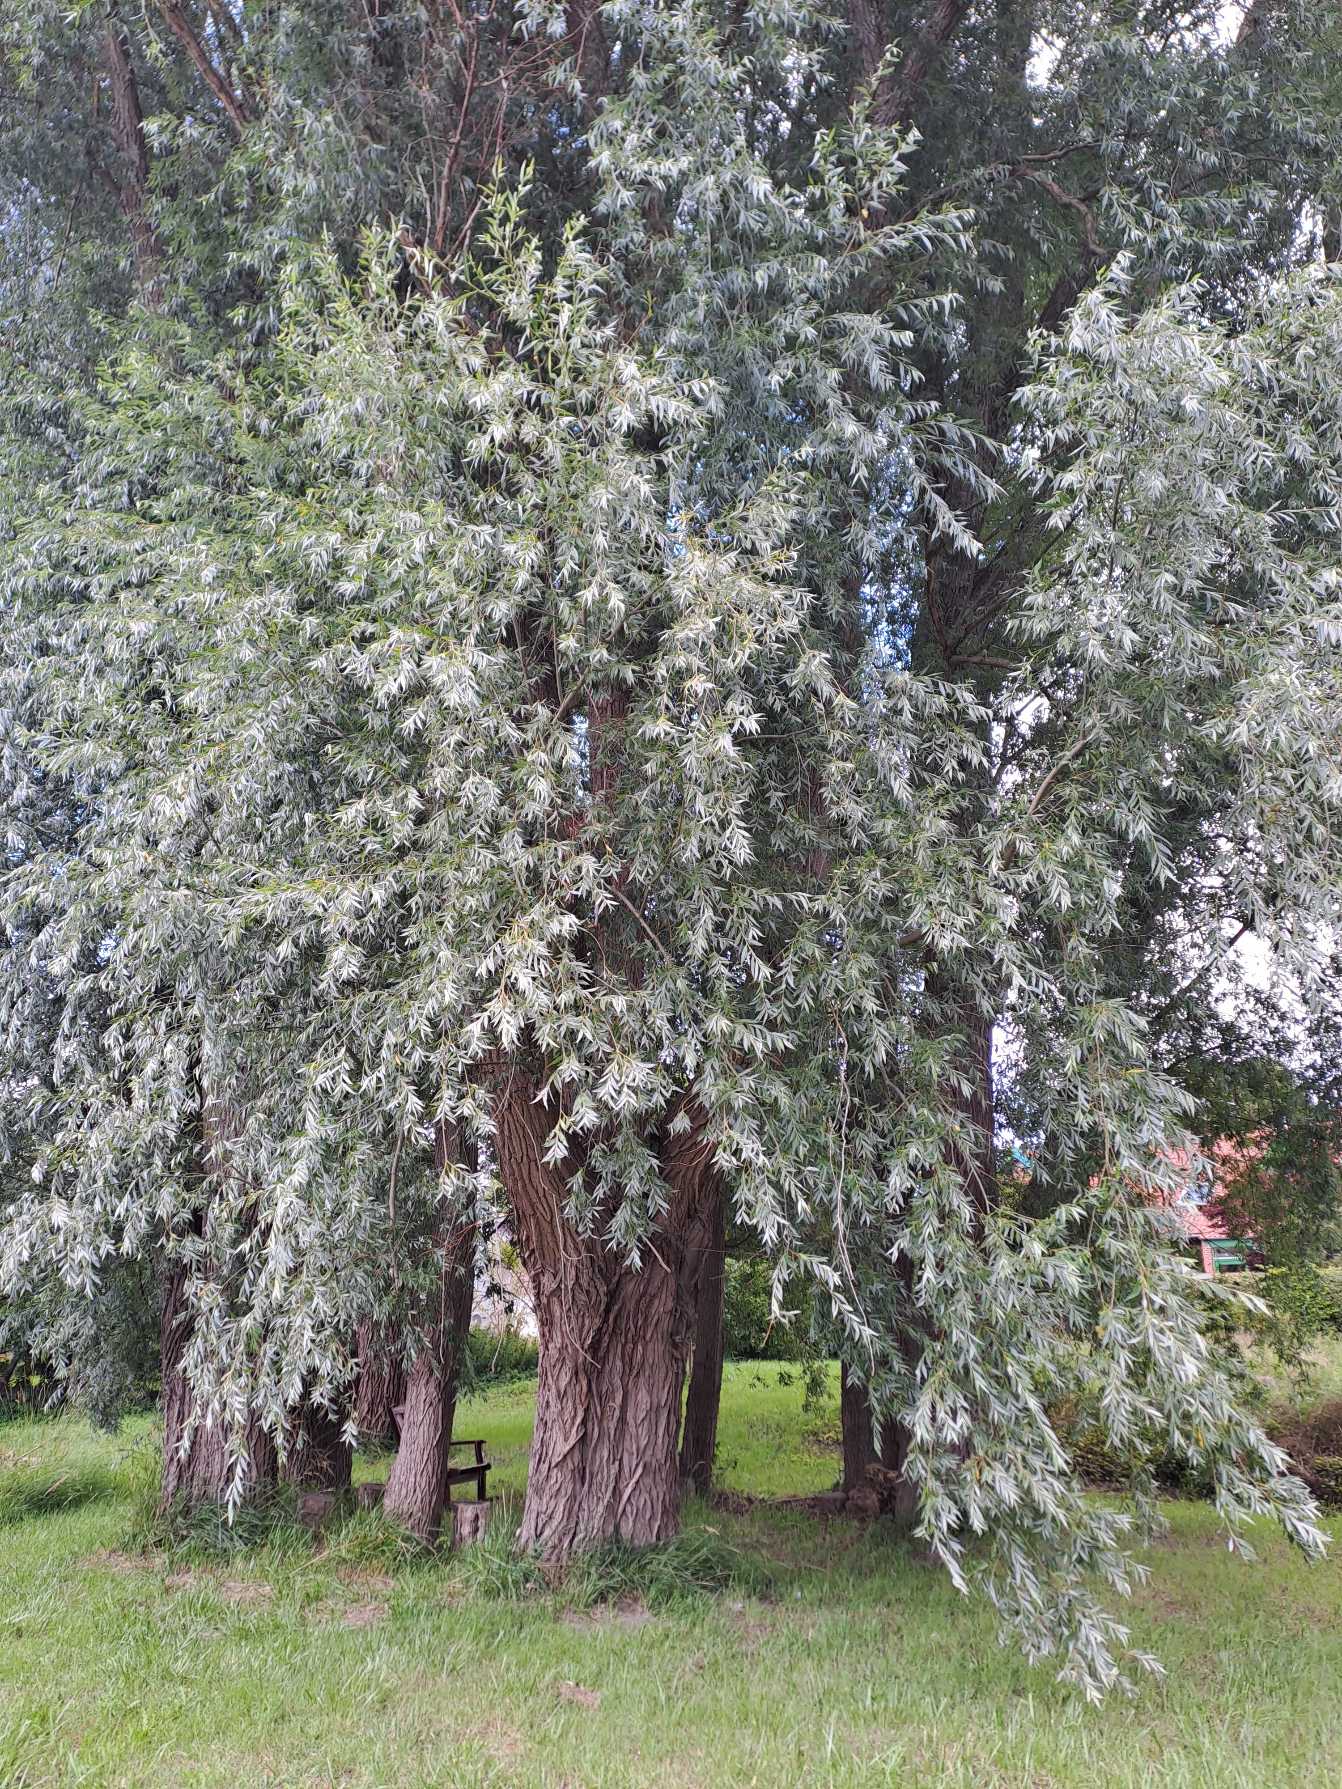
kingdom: Plantae
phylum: Tracheophyta
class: Magnoliopsida
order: Malpighiales
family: Salicaceae
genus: Salix
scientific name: Salix alba
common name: Hvid-pil
